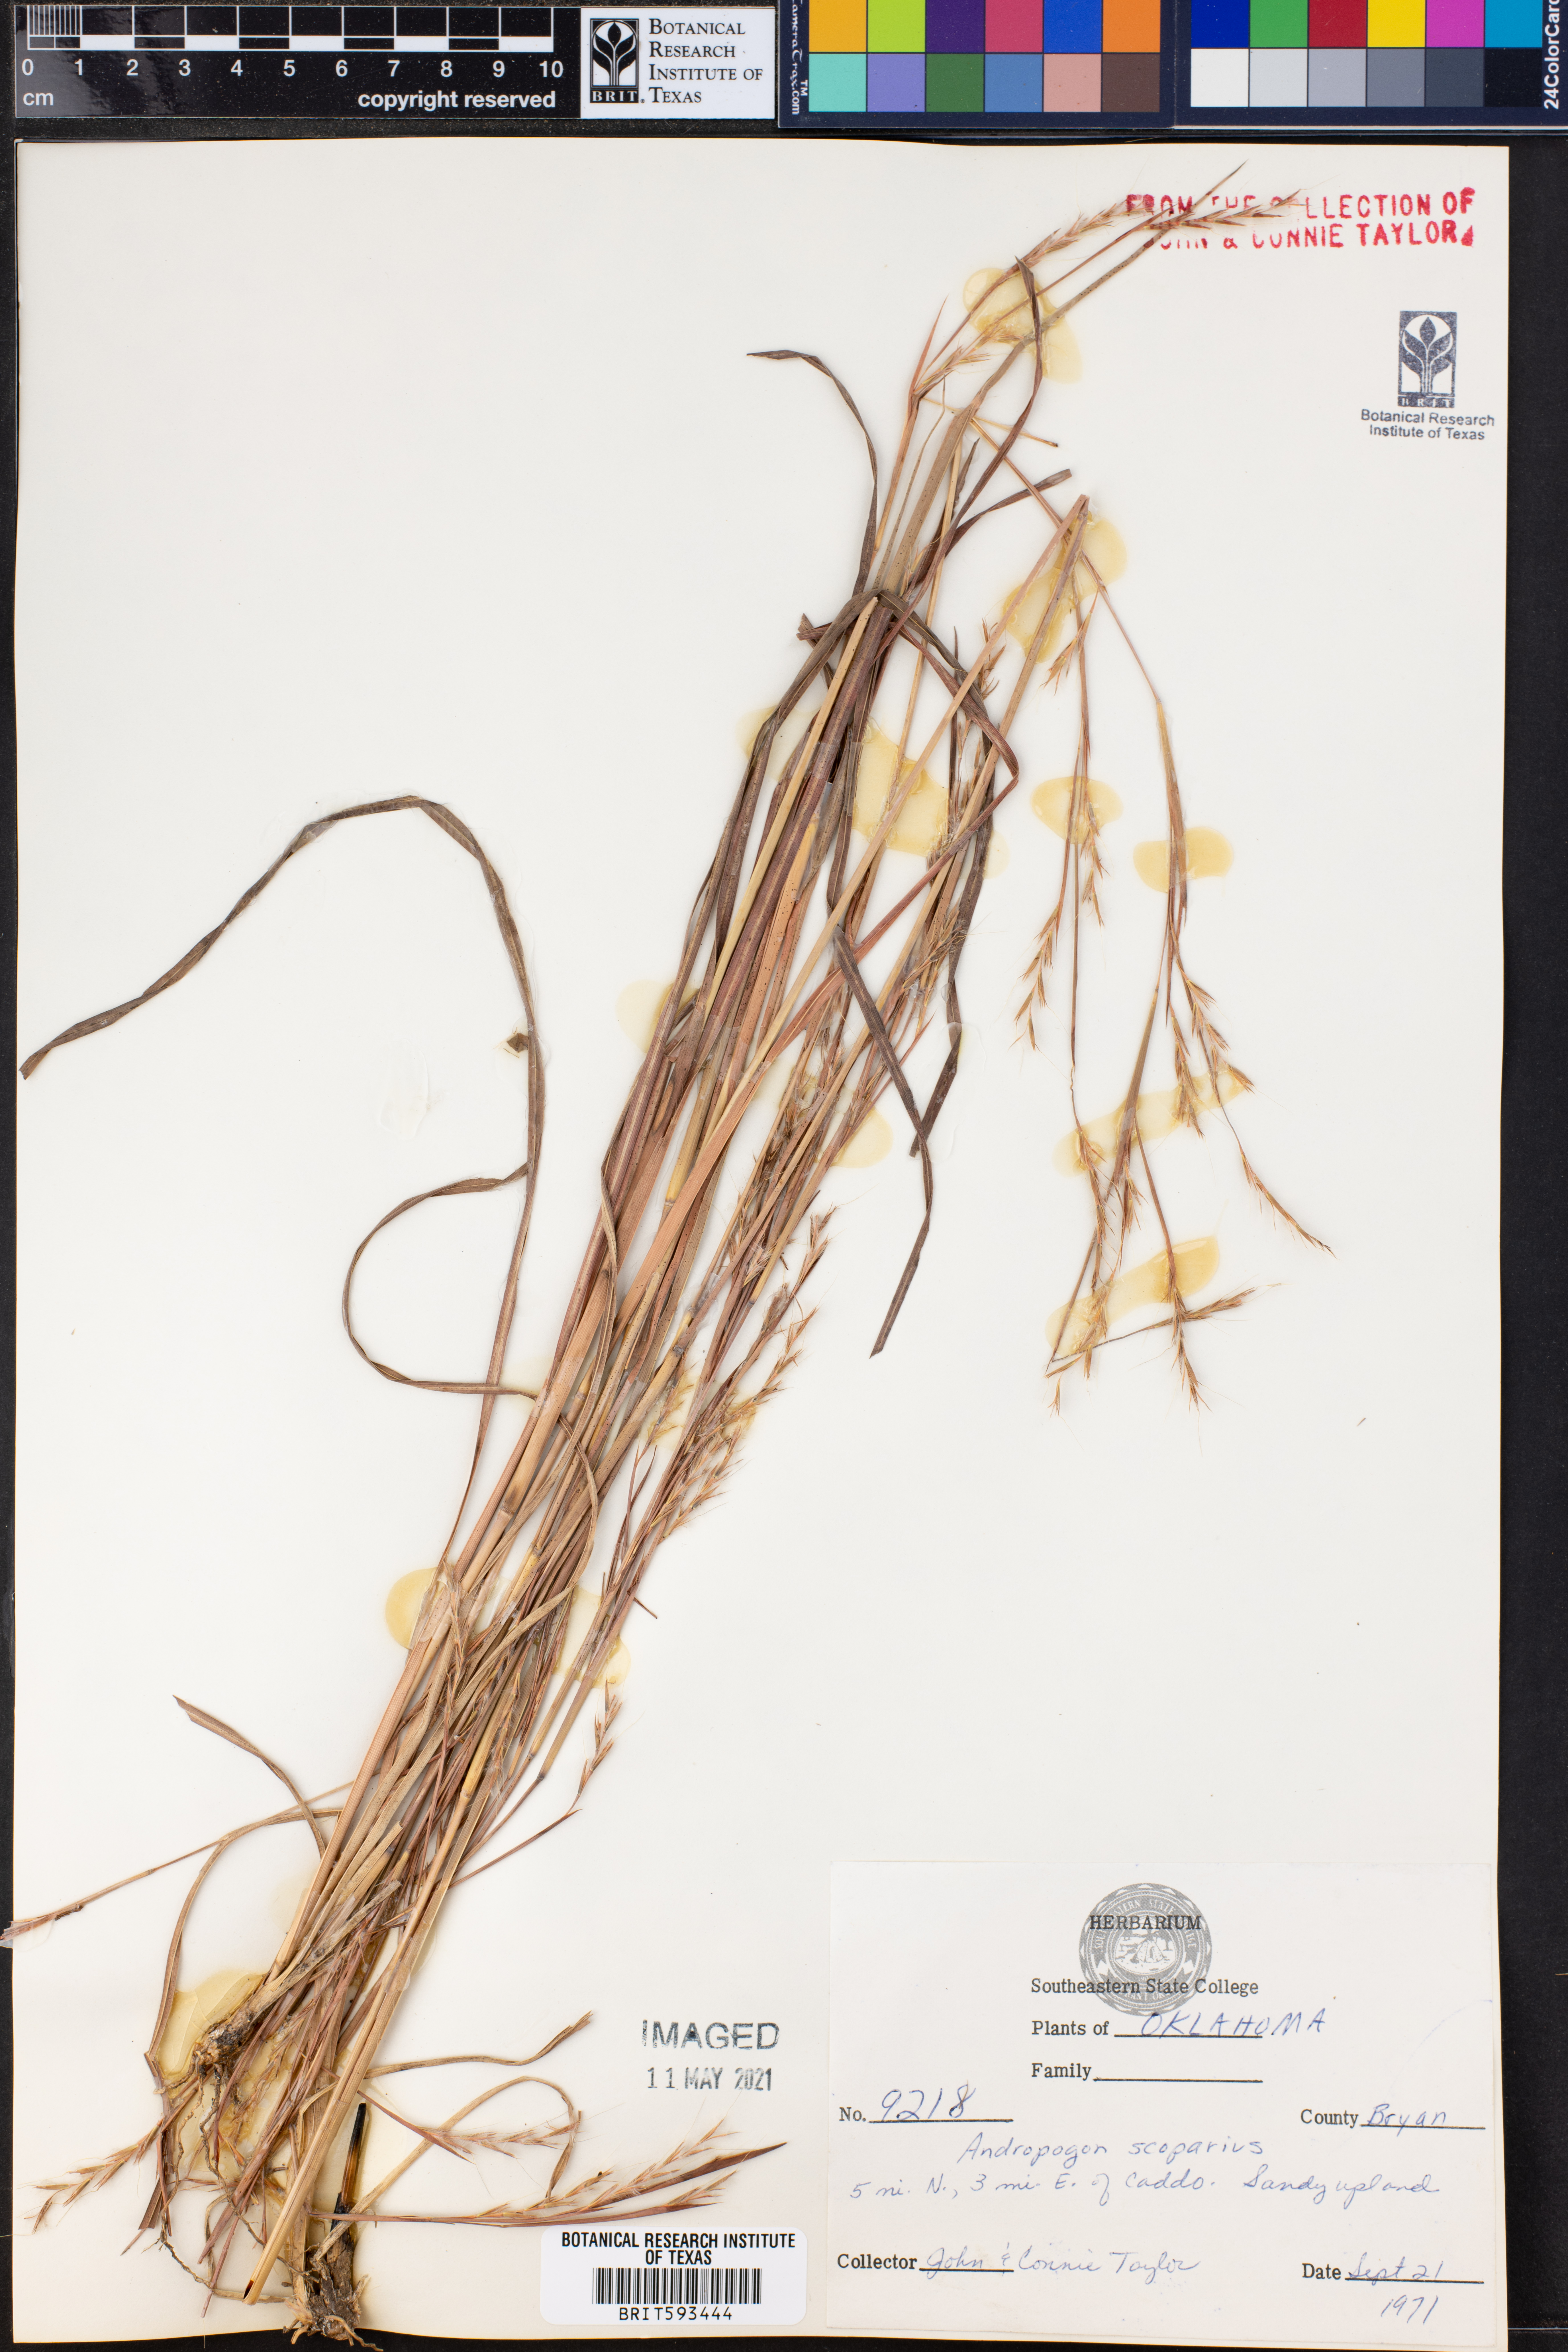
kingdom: Plantae
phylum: Tracheophyta
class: Liliopsida
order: Poales
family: Poaceae
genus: Schizachyrium
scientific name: Schizachyrium scoparium
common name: Little bluestem
